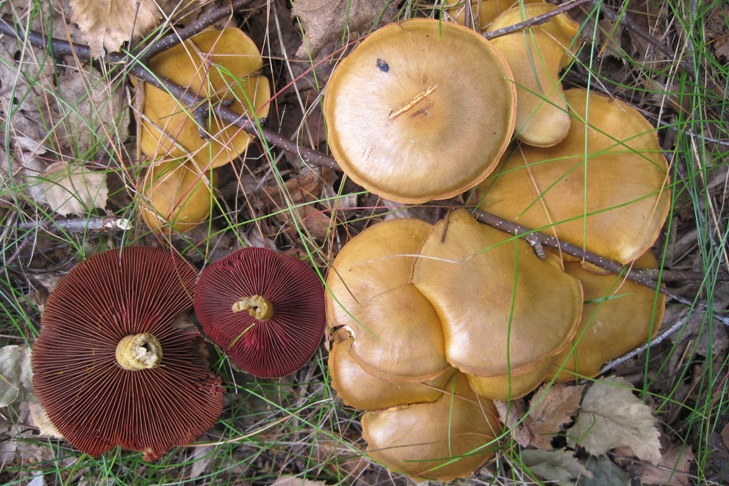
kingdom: Fungi
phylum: Basidiomycota
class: Agaricomycetes
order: Agaricales
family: Cortinariaceae
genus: Cortinarius
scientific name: Cortinarius
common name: cinnoberbladet slørhat
